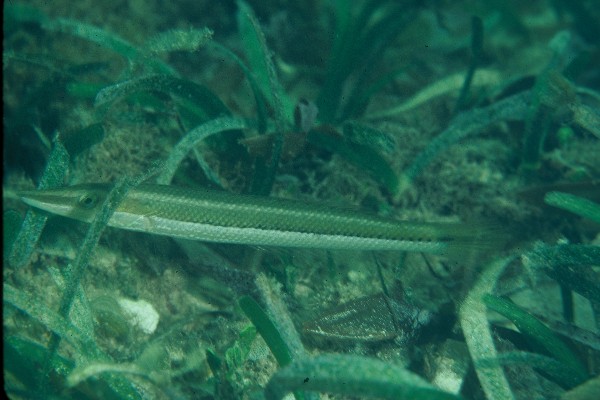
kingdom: Animalia
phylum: Chordata
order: Perciformes
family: Labridae
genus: Cheilio
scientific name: Cheilio inermis
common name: Cigar wrasse
